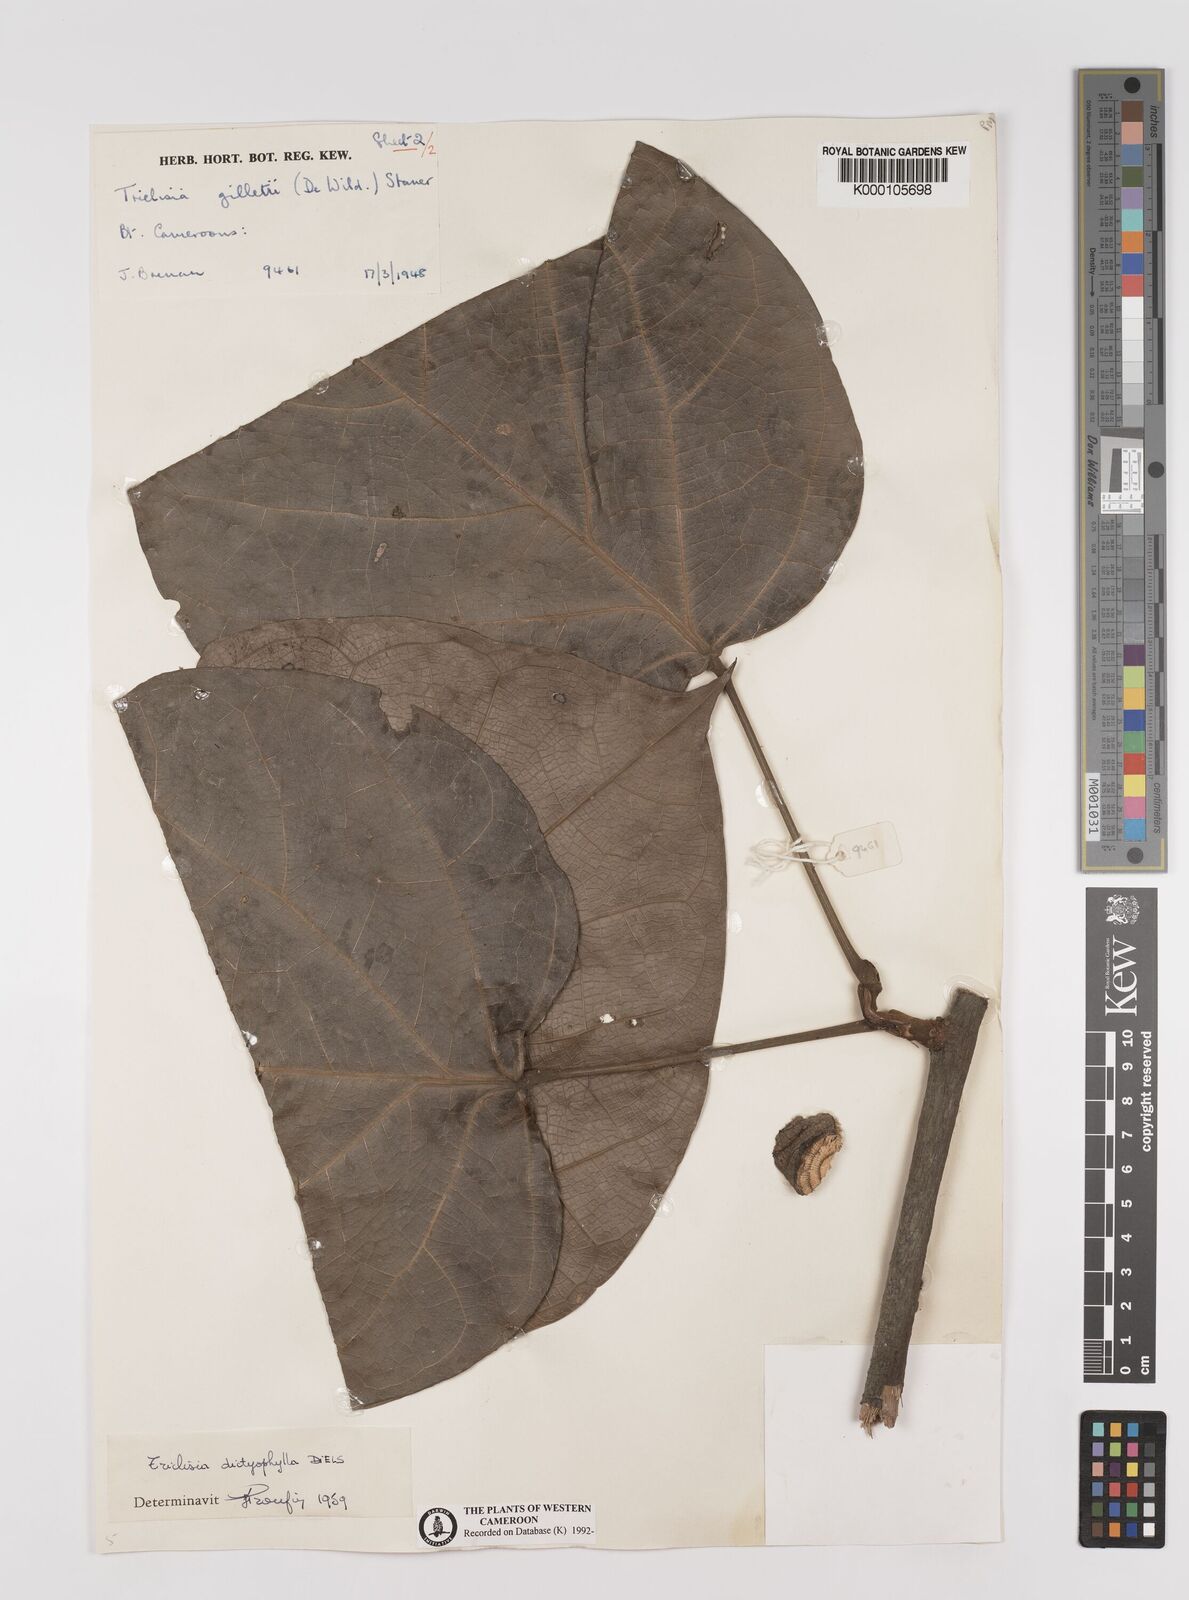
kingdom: Plantae
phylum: Tracheophyta
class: Magnoliopsida
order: Ranunculales
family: Menispermaceae
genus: Triclisia
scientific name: Triclisia dictyophylla
